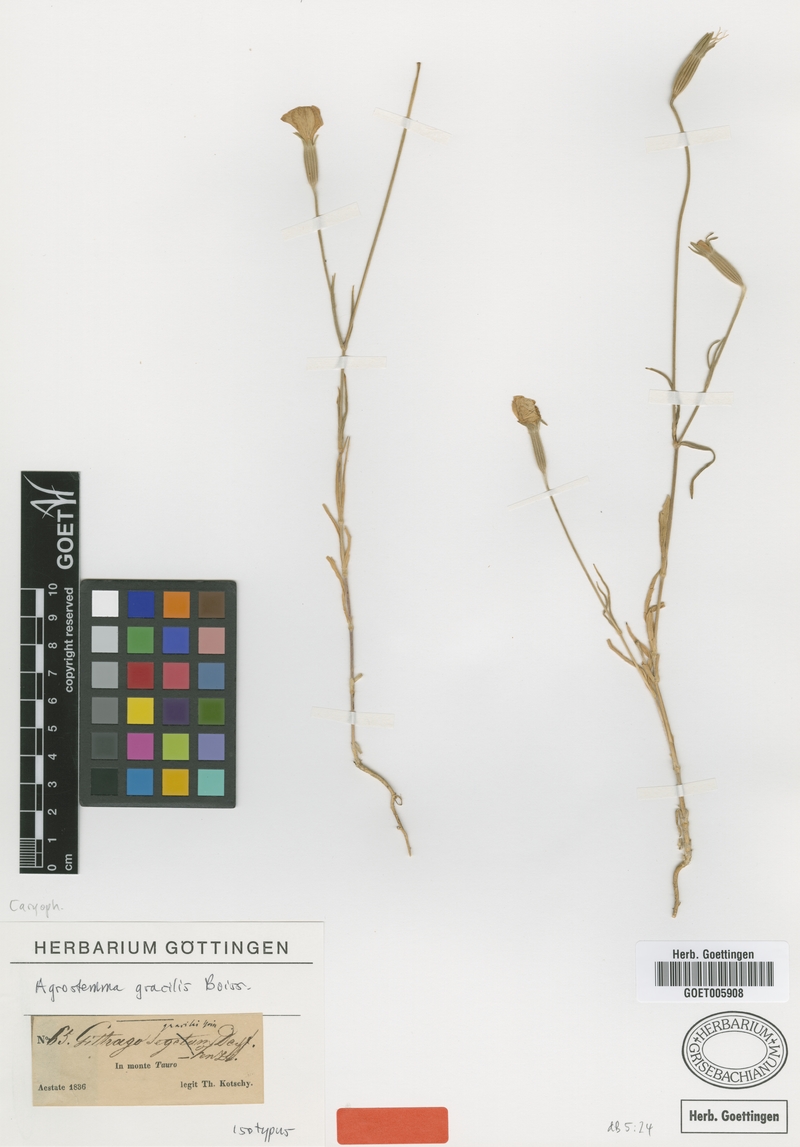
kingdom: Plantae
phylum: Tracheophyta
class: Magnoliopsida
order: Caryophyllales
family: Caryophyllaceae
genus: Agrostemma
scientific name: Agrostemma brachyloba
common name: Narrow corncockle
